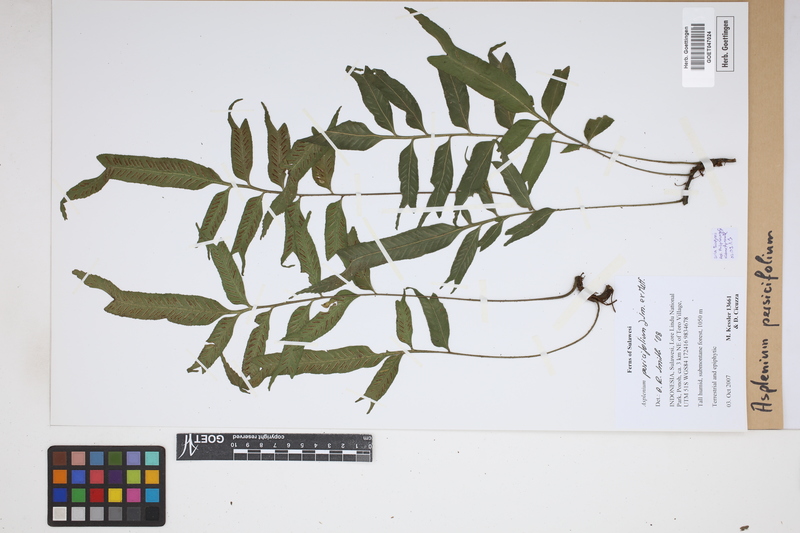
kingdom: Plantae
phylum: Tracheophyta
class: Polypodiopsida
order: Polypodiales
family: Aspleniaceae
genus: Asplenium
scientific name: Asplenium persicifolium
